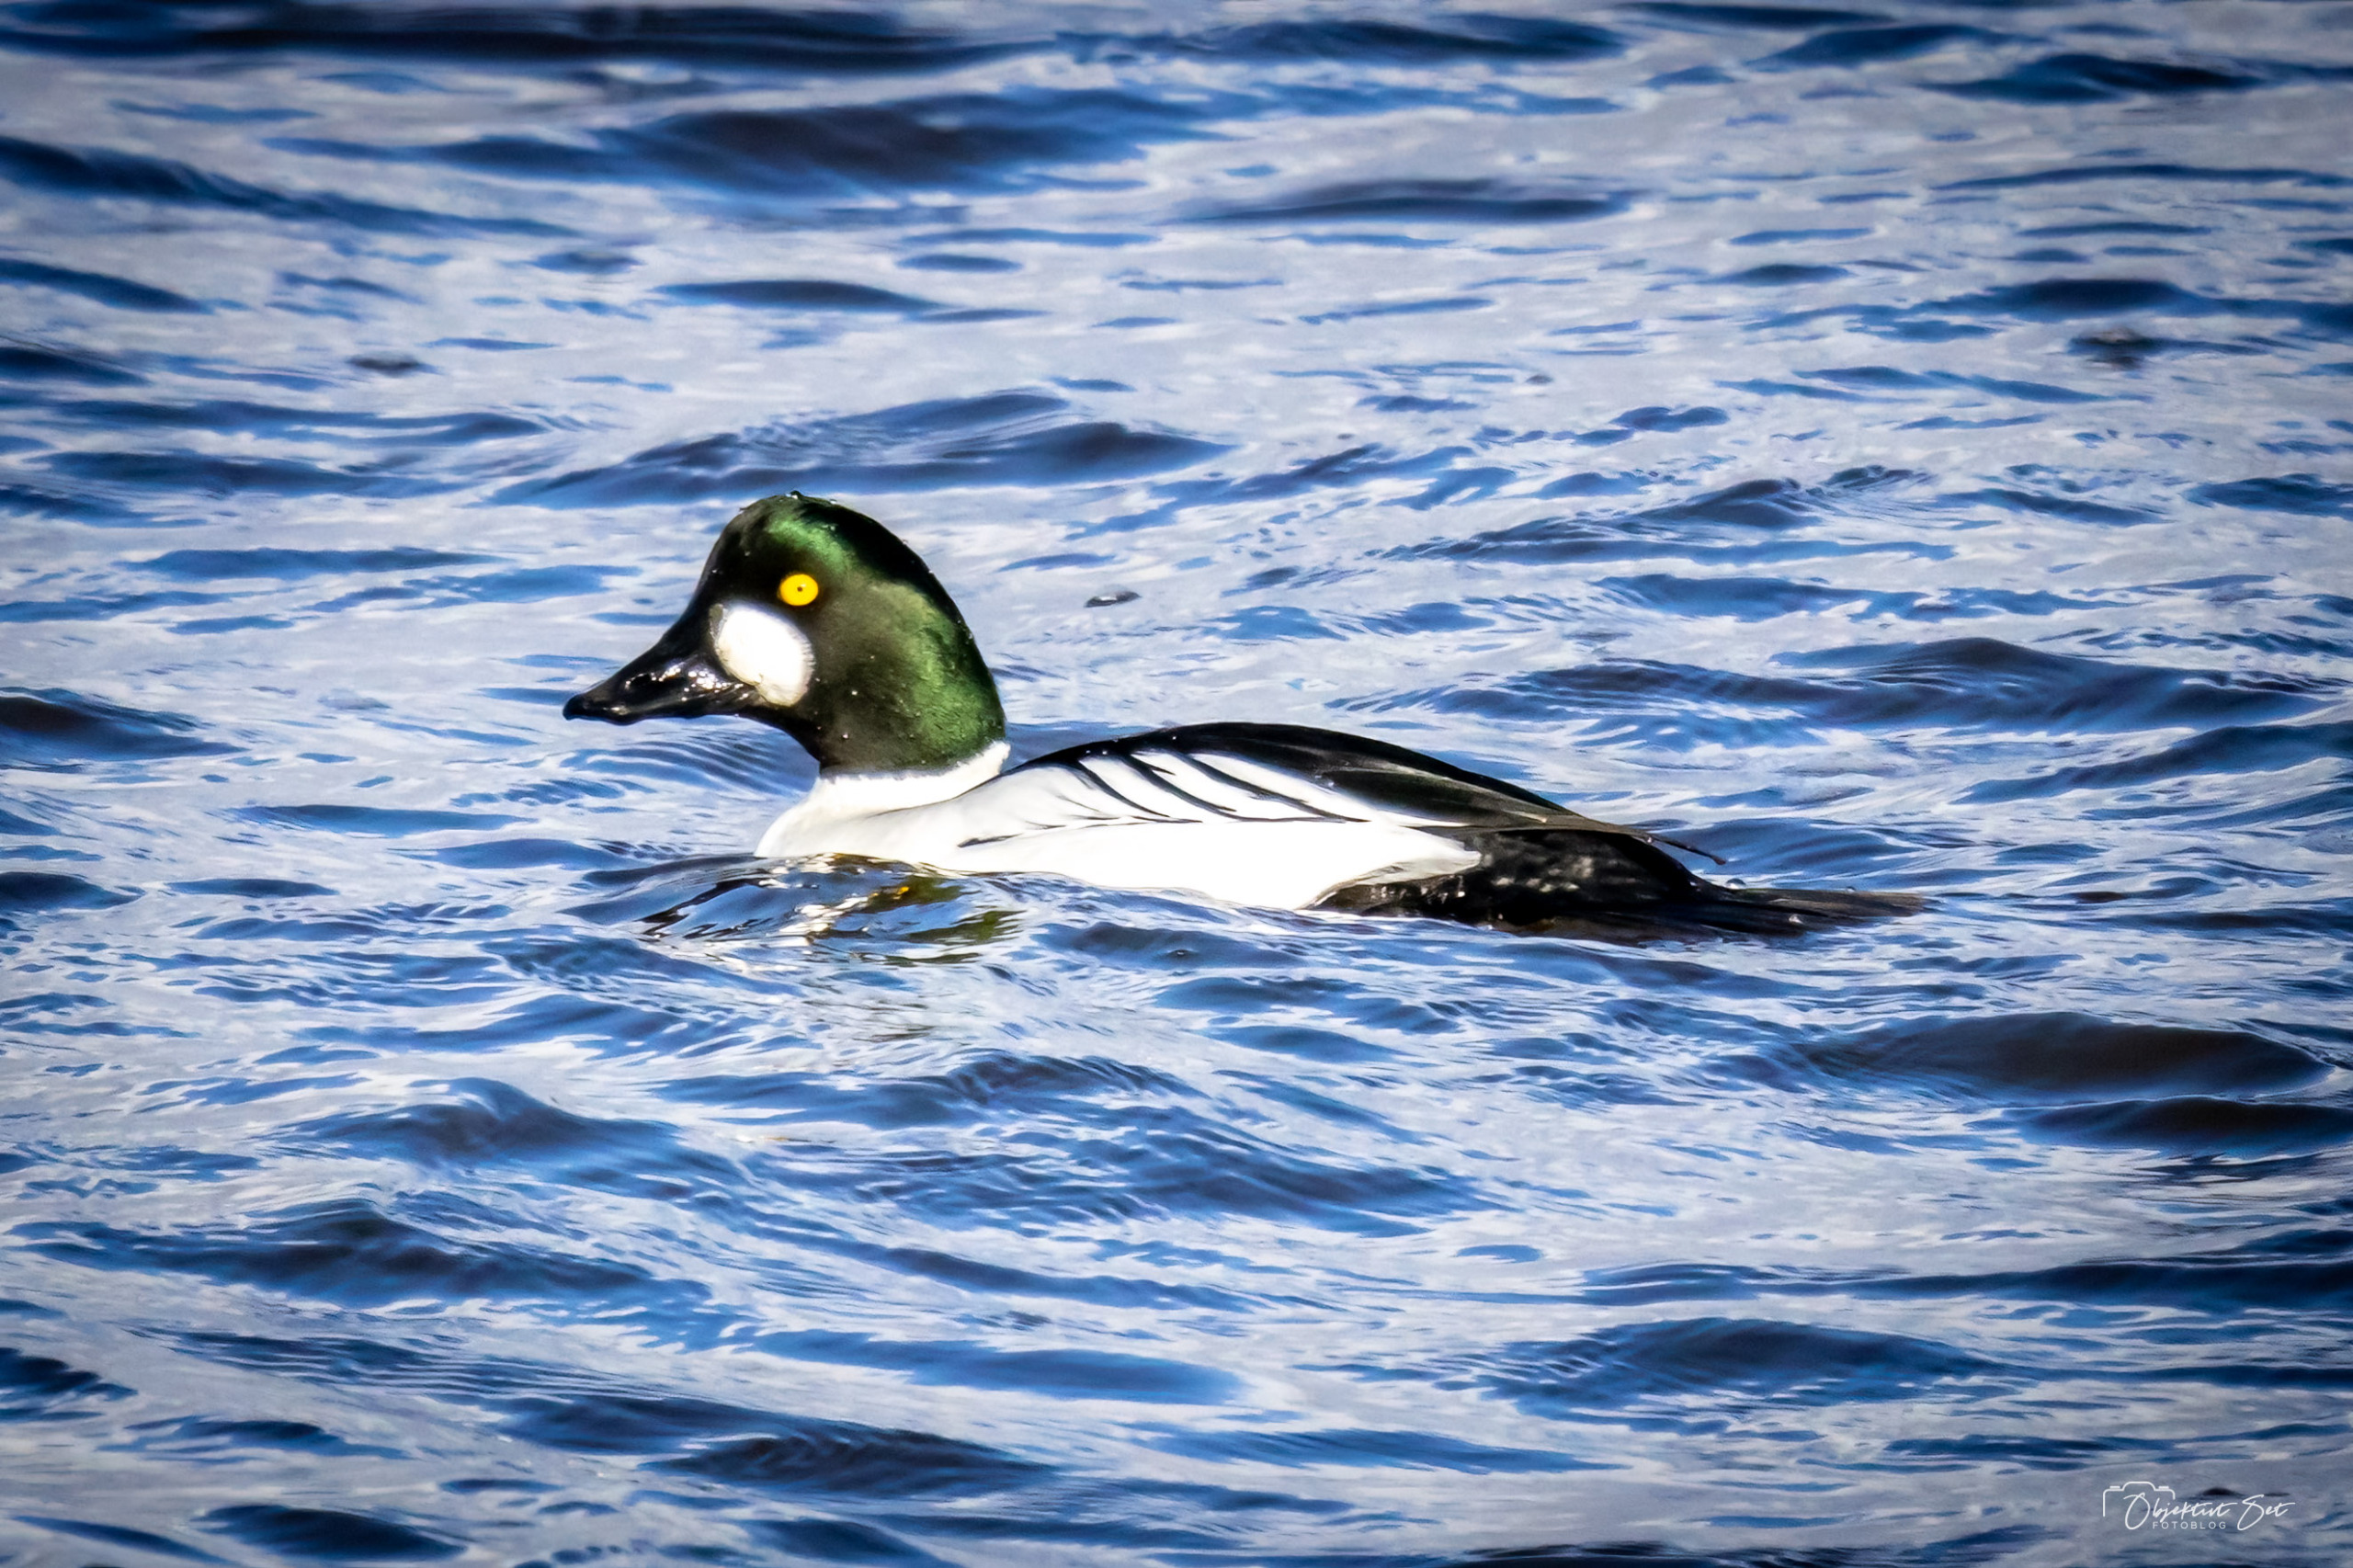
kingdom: Animalia
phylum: Chordata
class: Aves
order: Anseriformes
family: Anatidae
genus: Bucephala
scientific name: Bucephala clangula
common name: Hvinand
